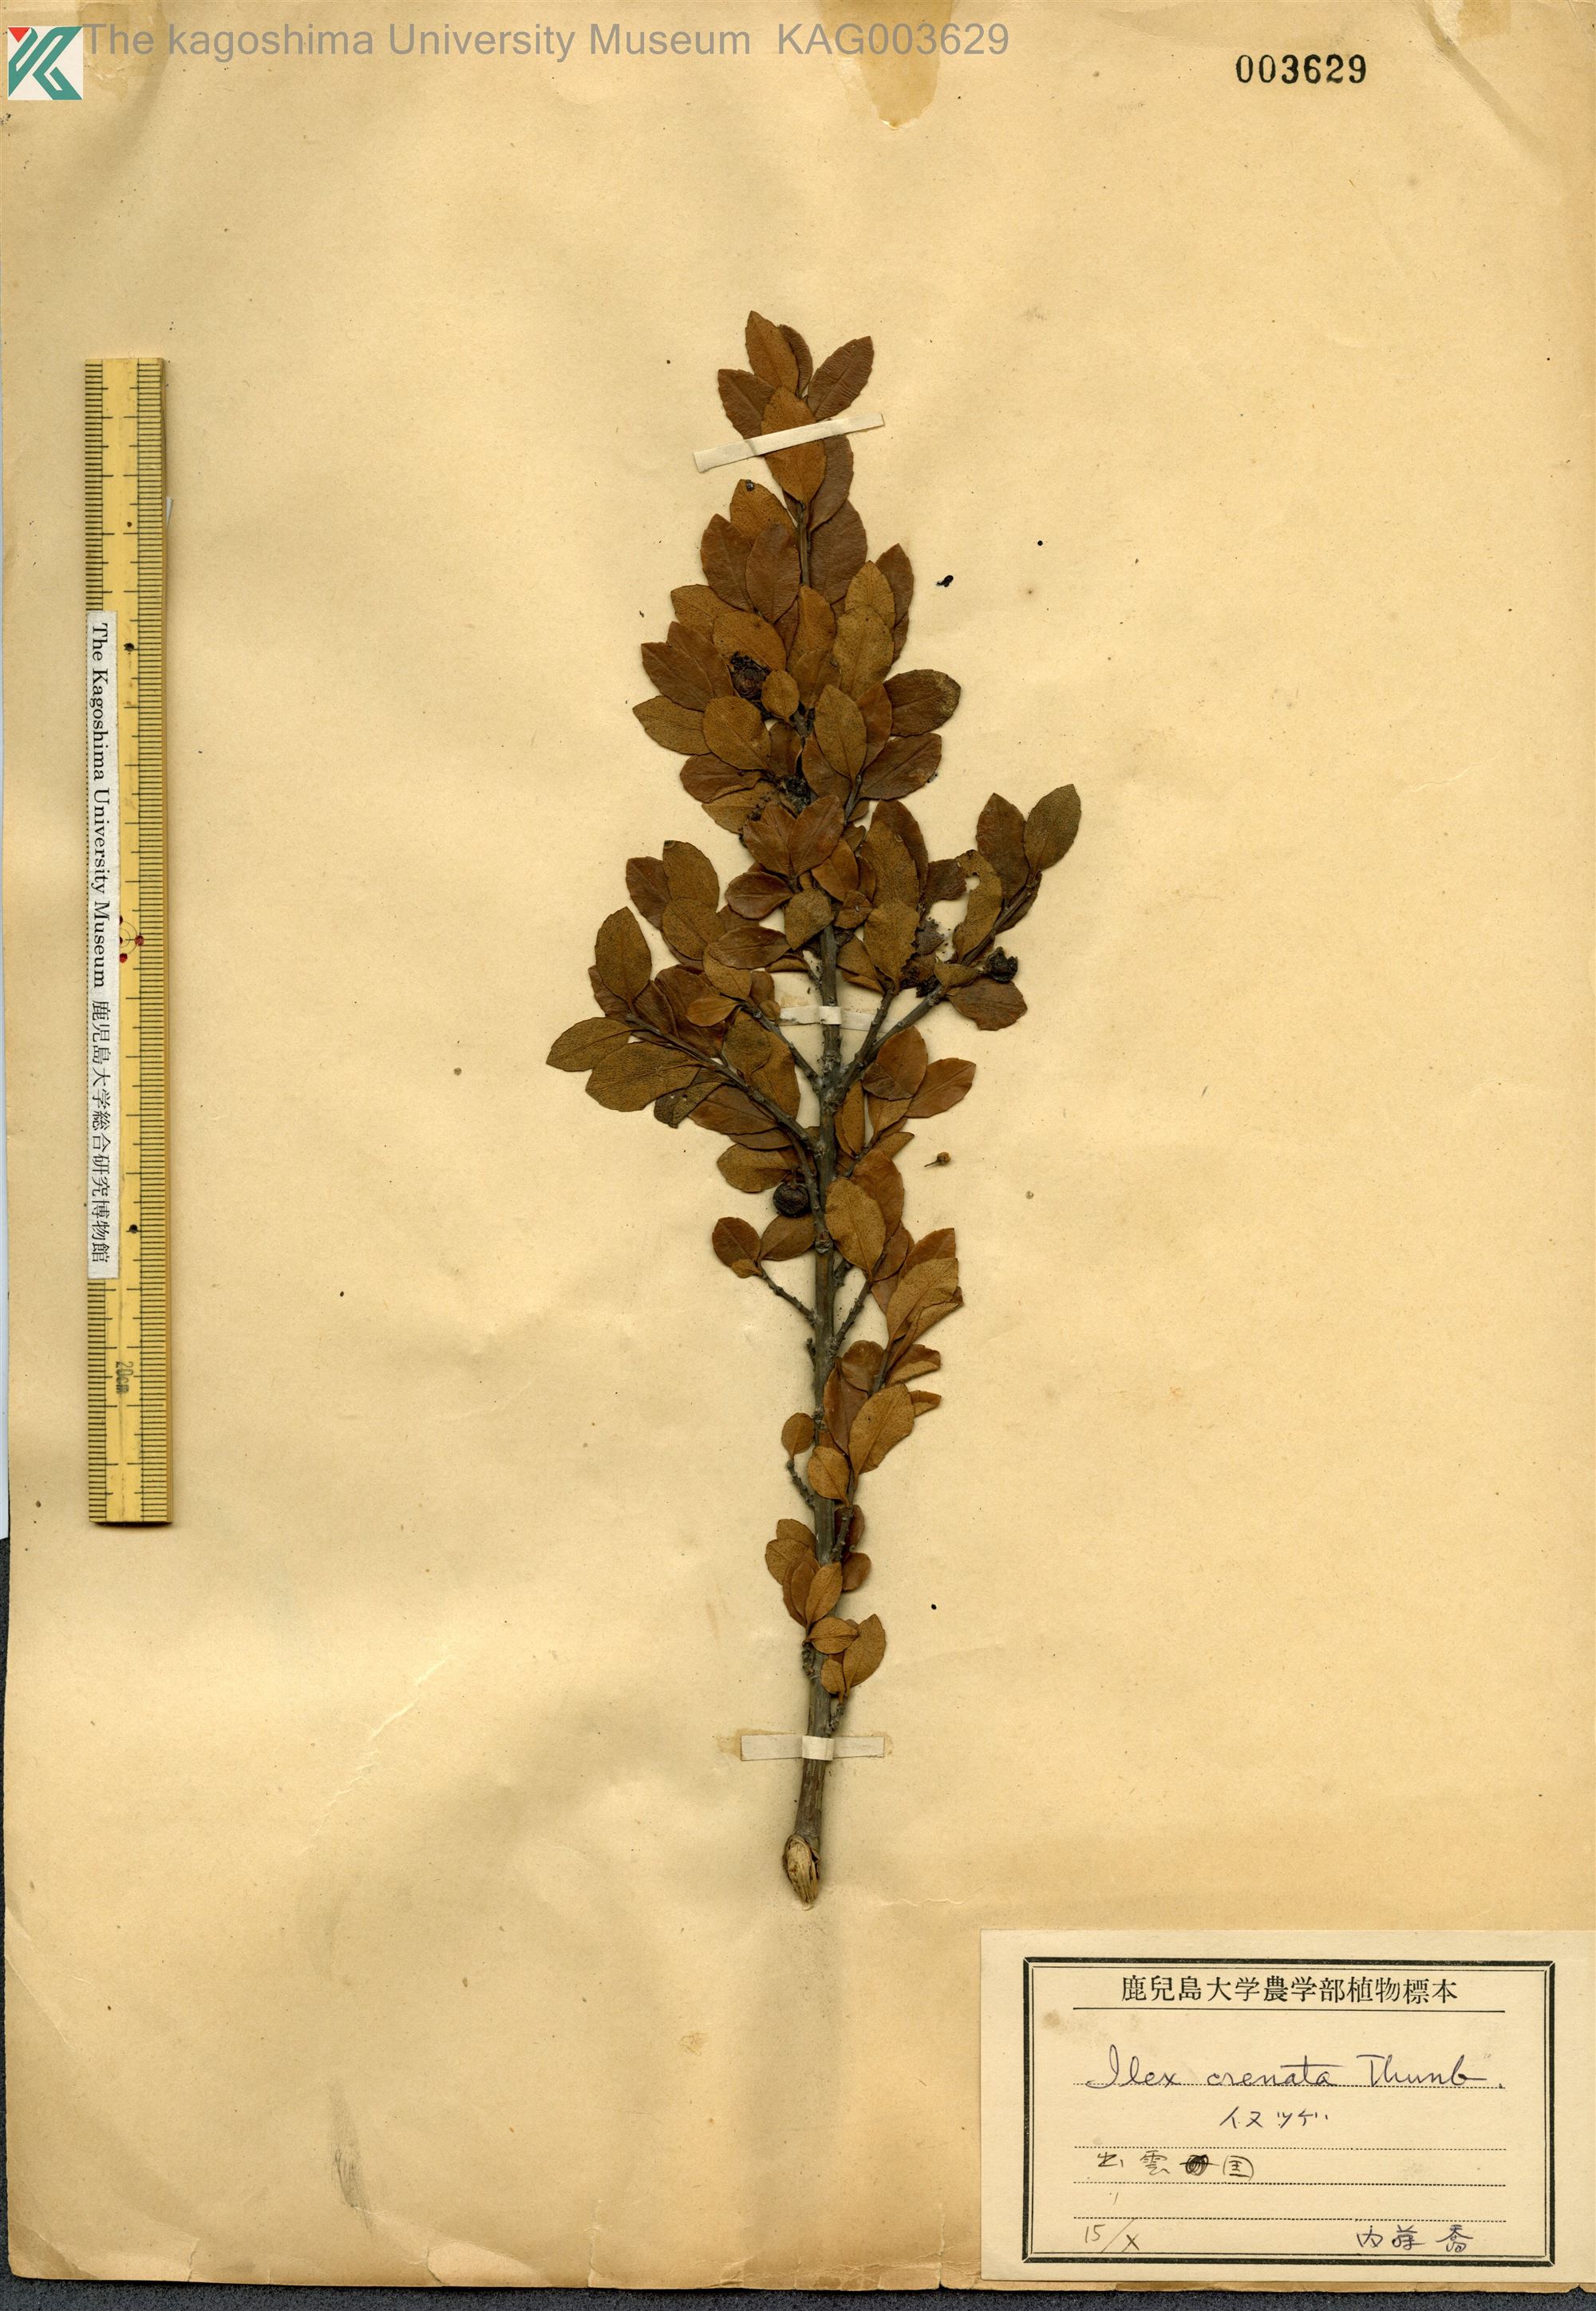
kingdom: Plantae
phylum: Tracheophyta
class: Magnoliopsida
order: Aquifoliales
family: Aquifoliaceae
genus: Ilex
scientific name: Ilex crenata
